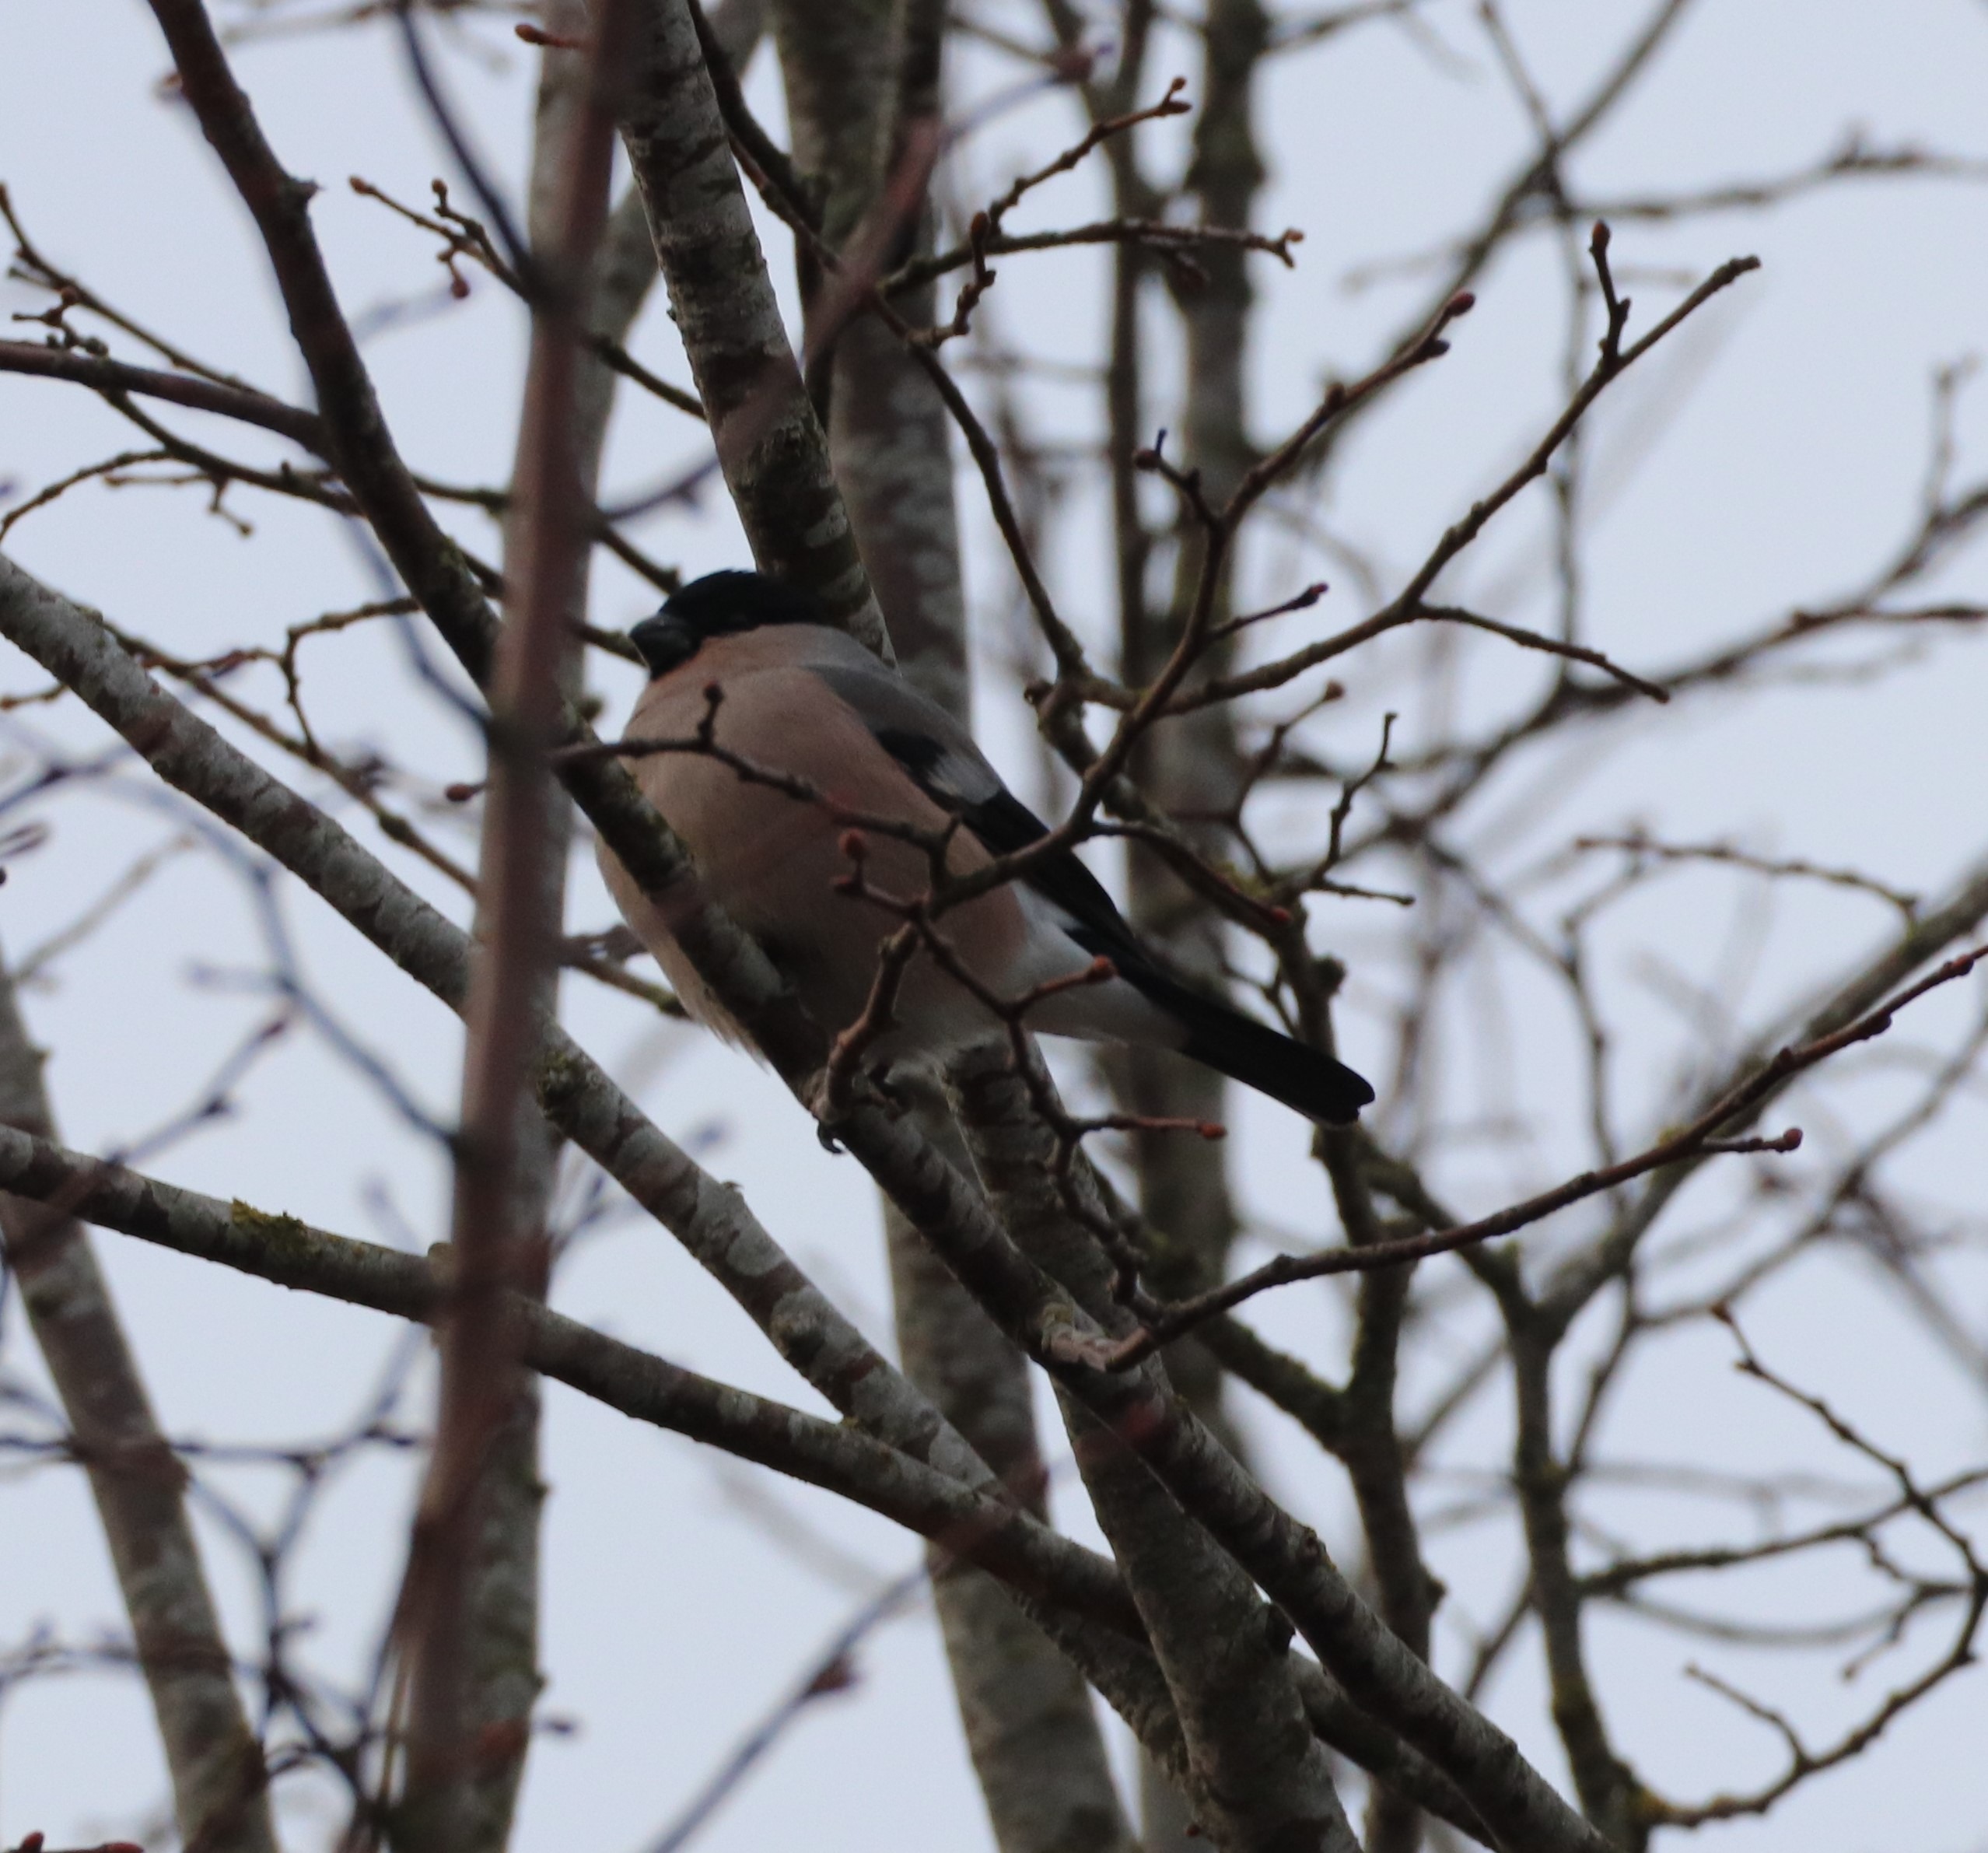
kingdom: Animalia
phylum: Chordata
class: Aves
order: Passeriformes
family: Fringillidae
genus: Pyrrhula
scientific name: Pyrrhula pyrrhula
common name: Dompap
